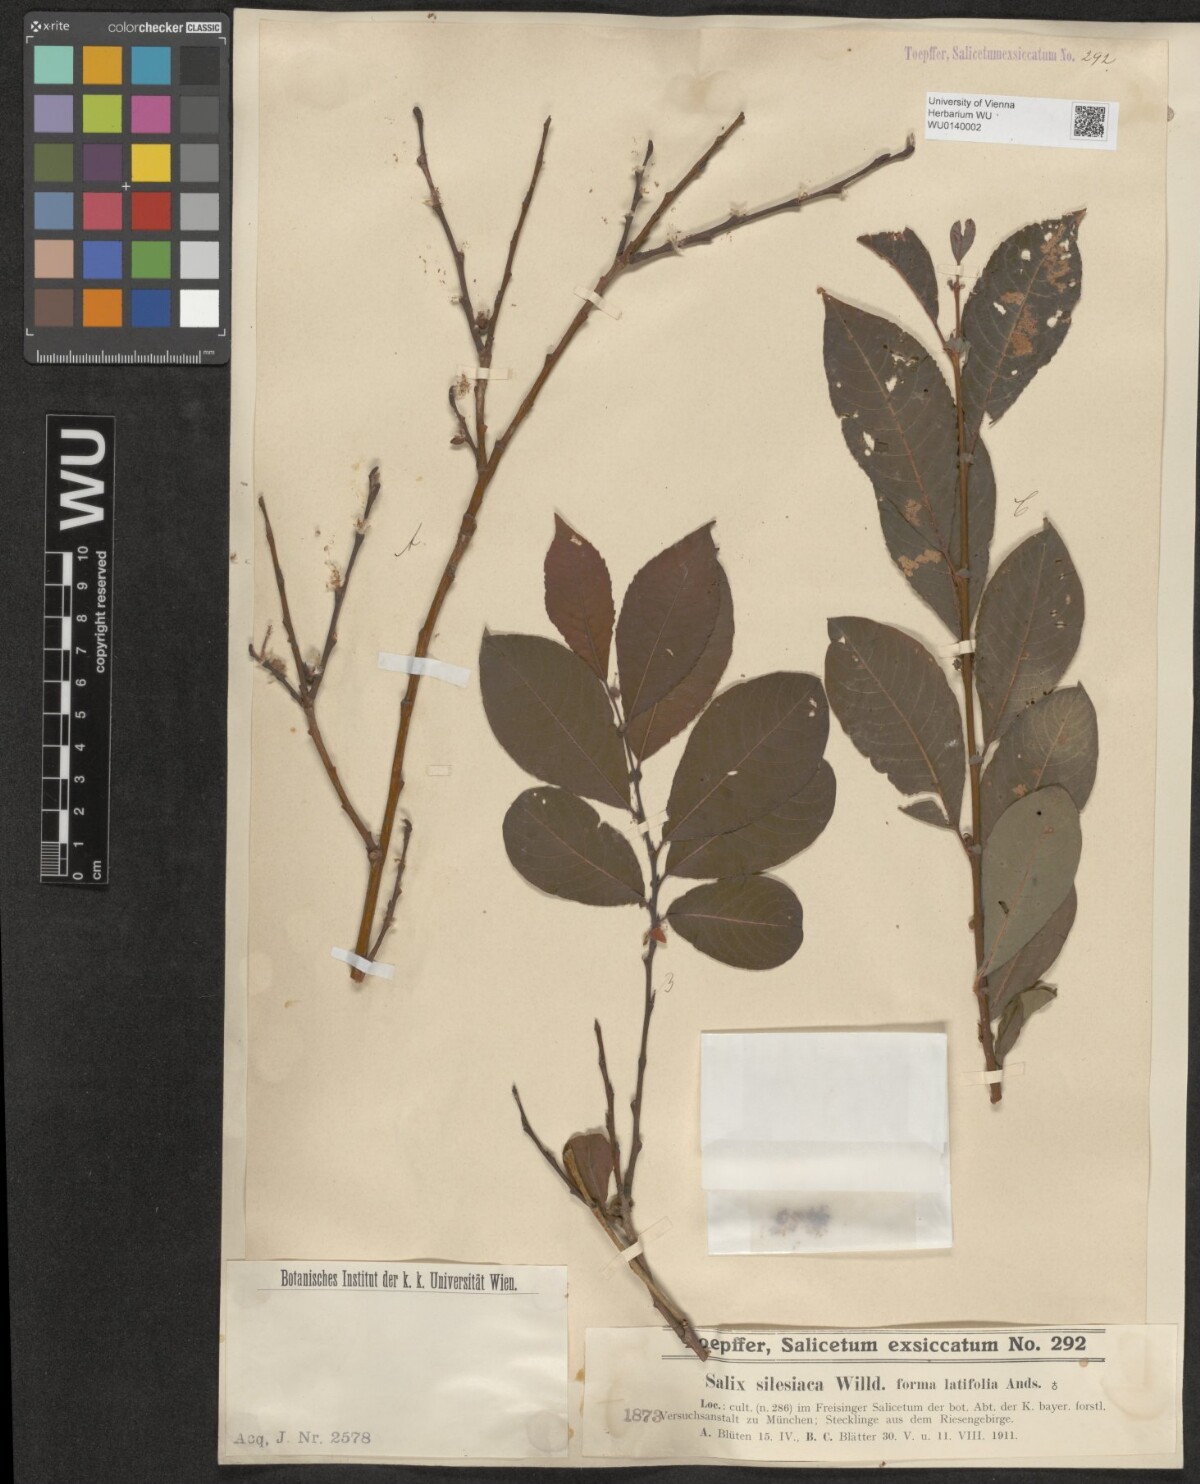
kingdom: Plantae
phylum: Tracheophyta
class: Magnoliopsida
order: Malpighiales
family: Salicaceae
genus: Salix
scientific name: Salix silesiaca
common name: Silesian willow
